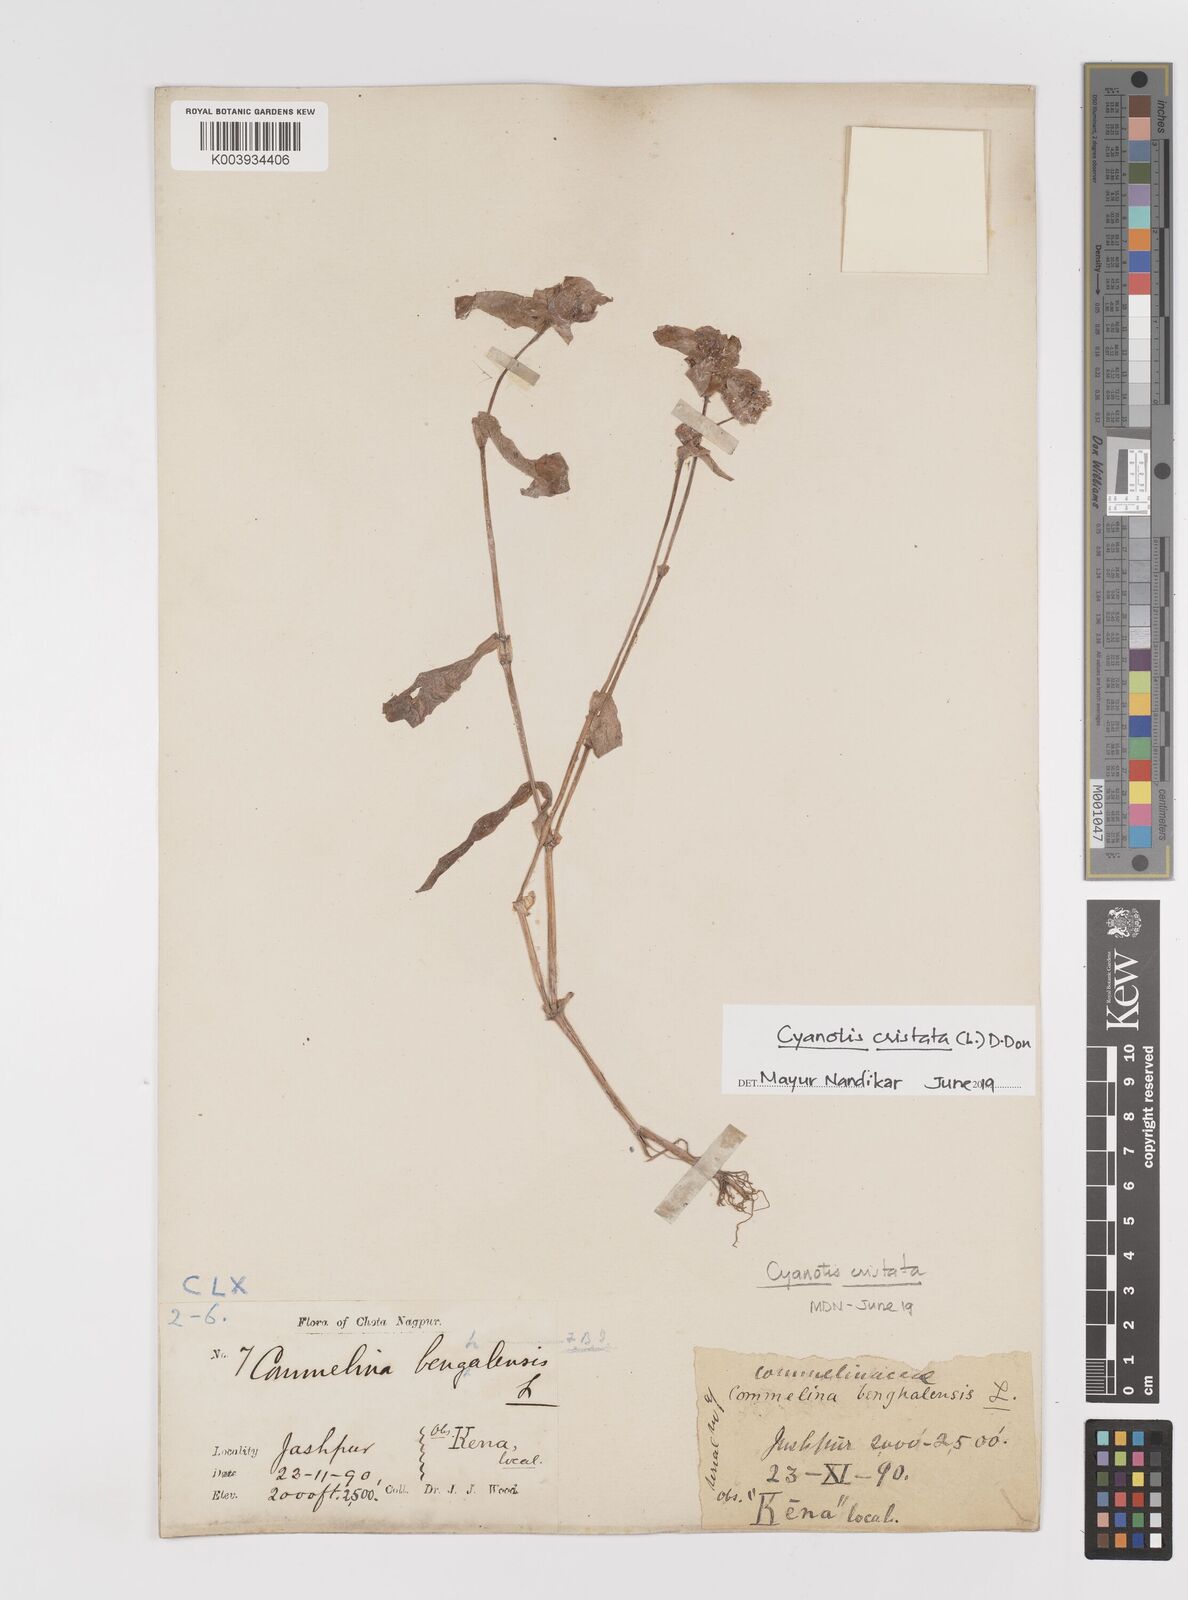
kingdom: Plantae
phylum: Tracheophyta
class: Liliopsida
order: Commelinales
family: Commelinaceae
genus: Cyanotis
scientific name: Cyanotis cristata
